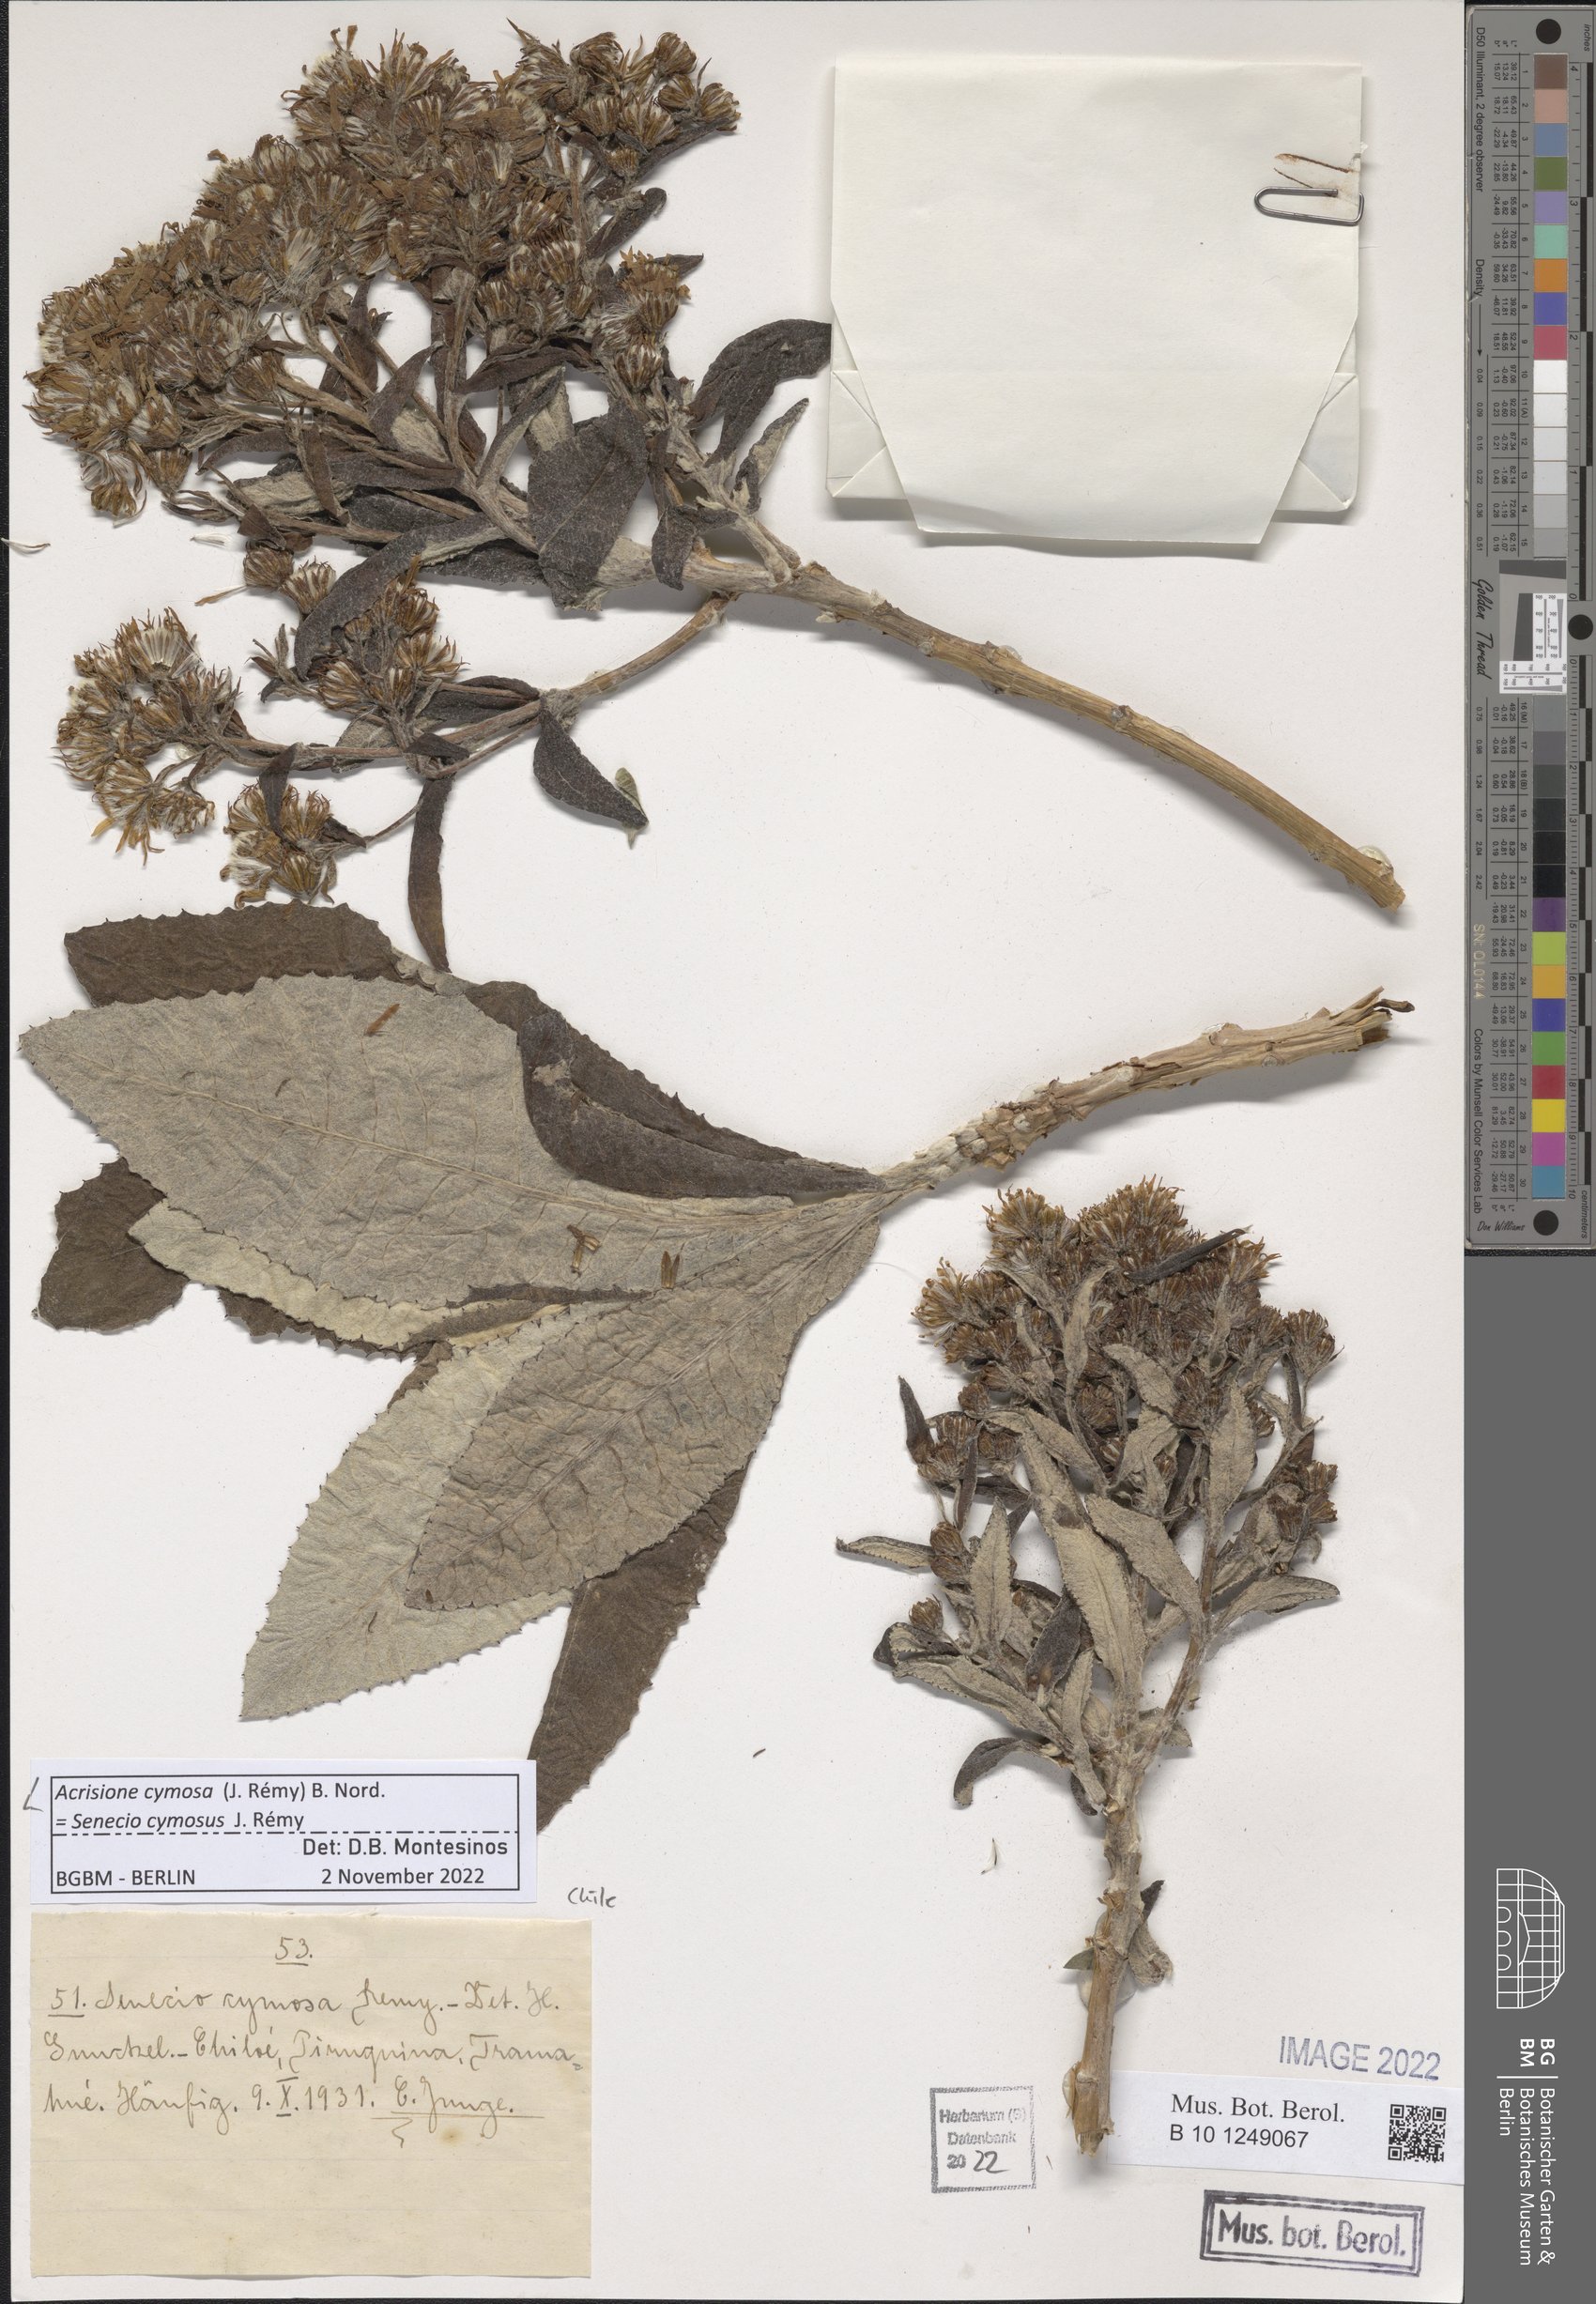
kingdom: Plantae
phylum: Tracheophyta
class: Magnoliopsida
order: Asterales
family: Asteraceae
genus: Acrisione
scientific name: Acrisione cymosa
